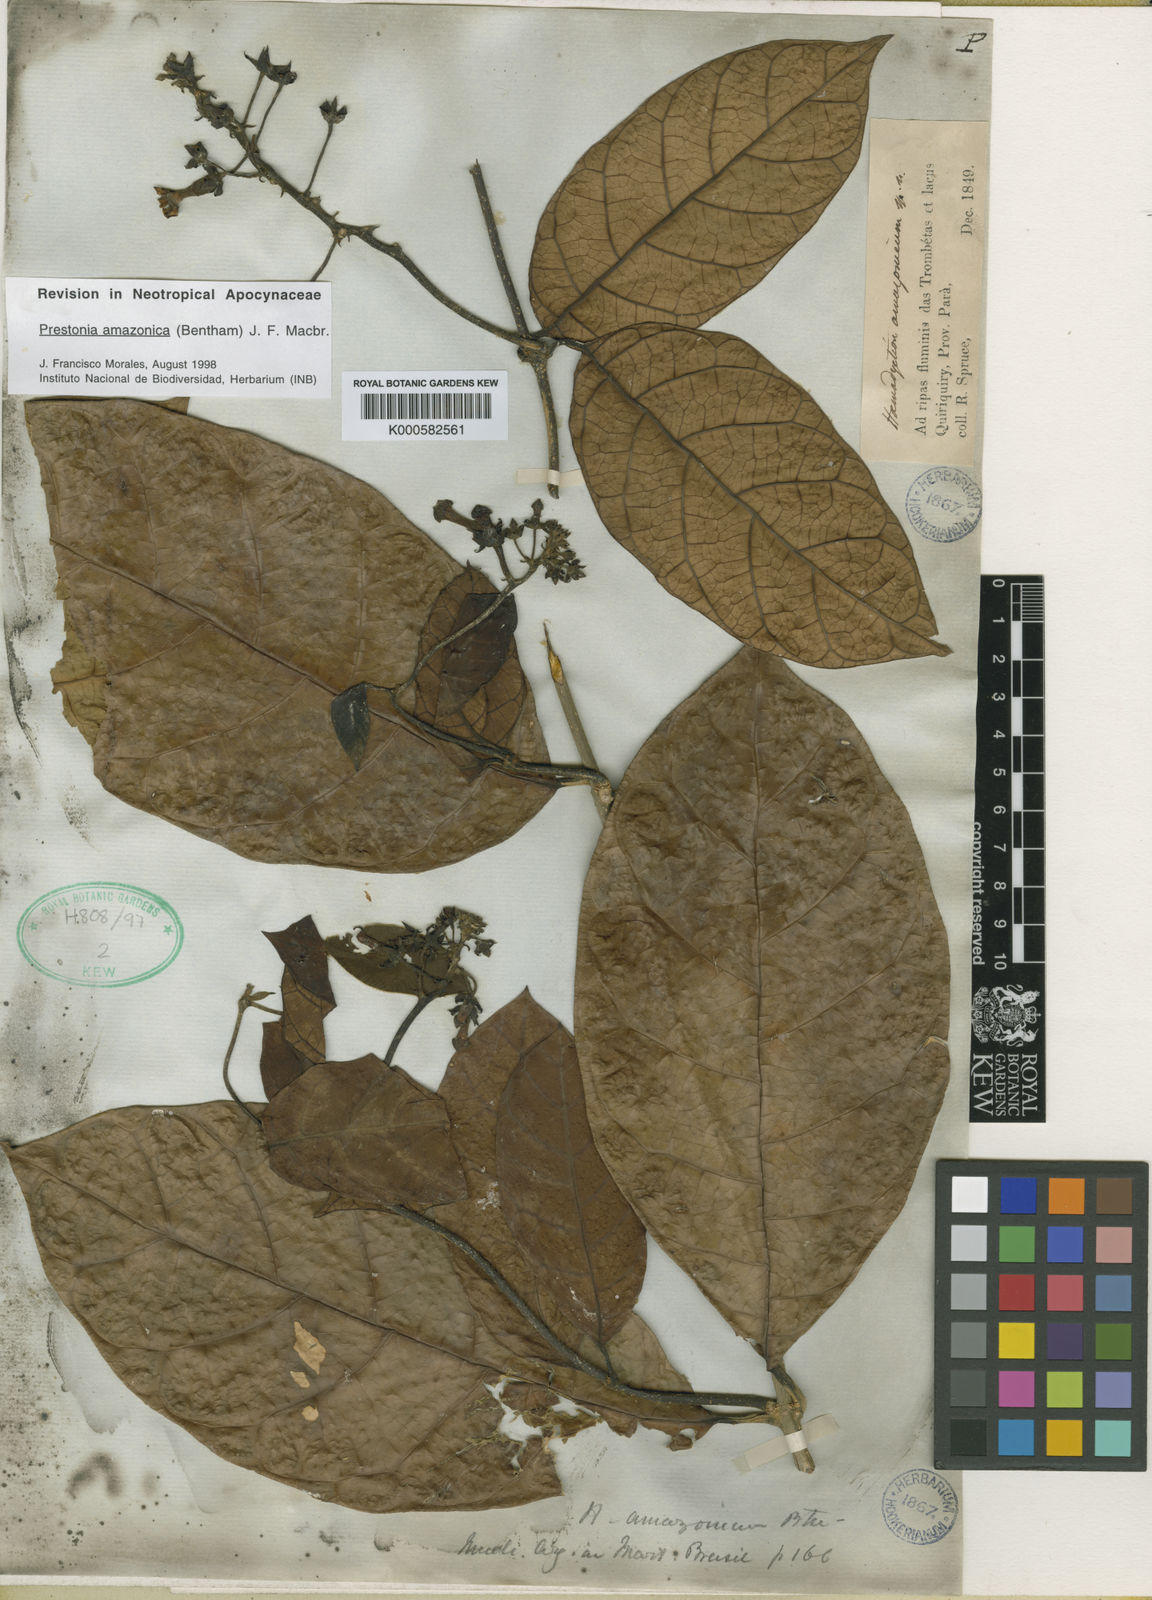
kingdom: Plantae
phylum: Tracheophyta
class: Magnoliopsida
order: Gentianales
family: Apocynaceae
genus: Prestonia
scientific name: Prestonia amazonica
